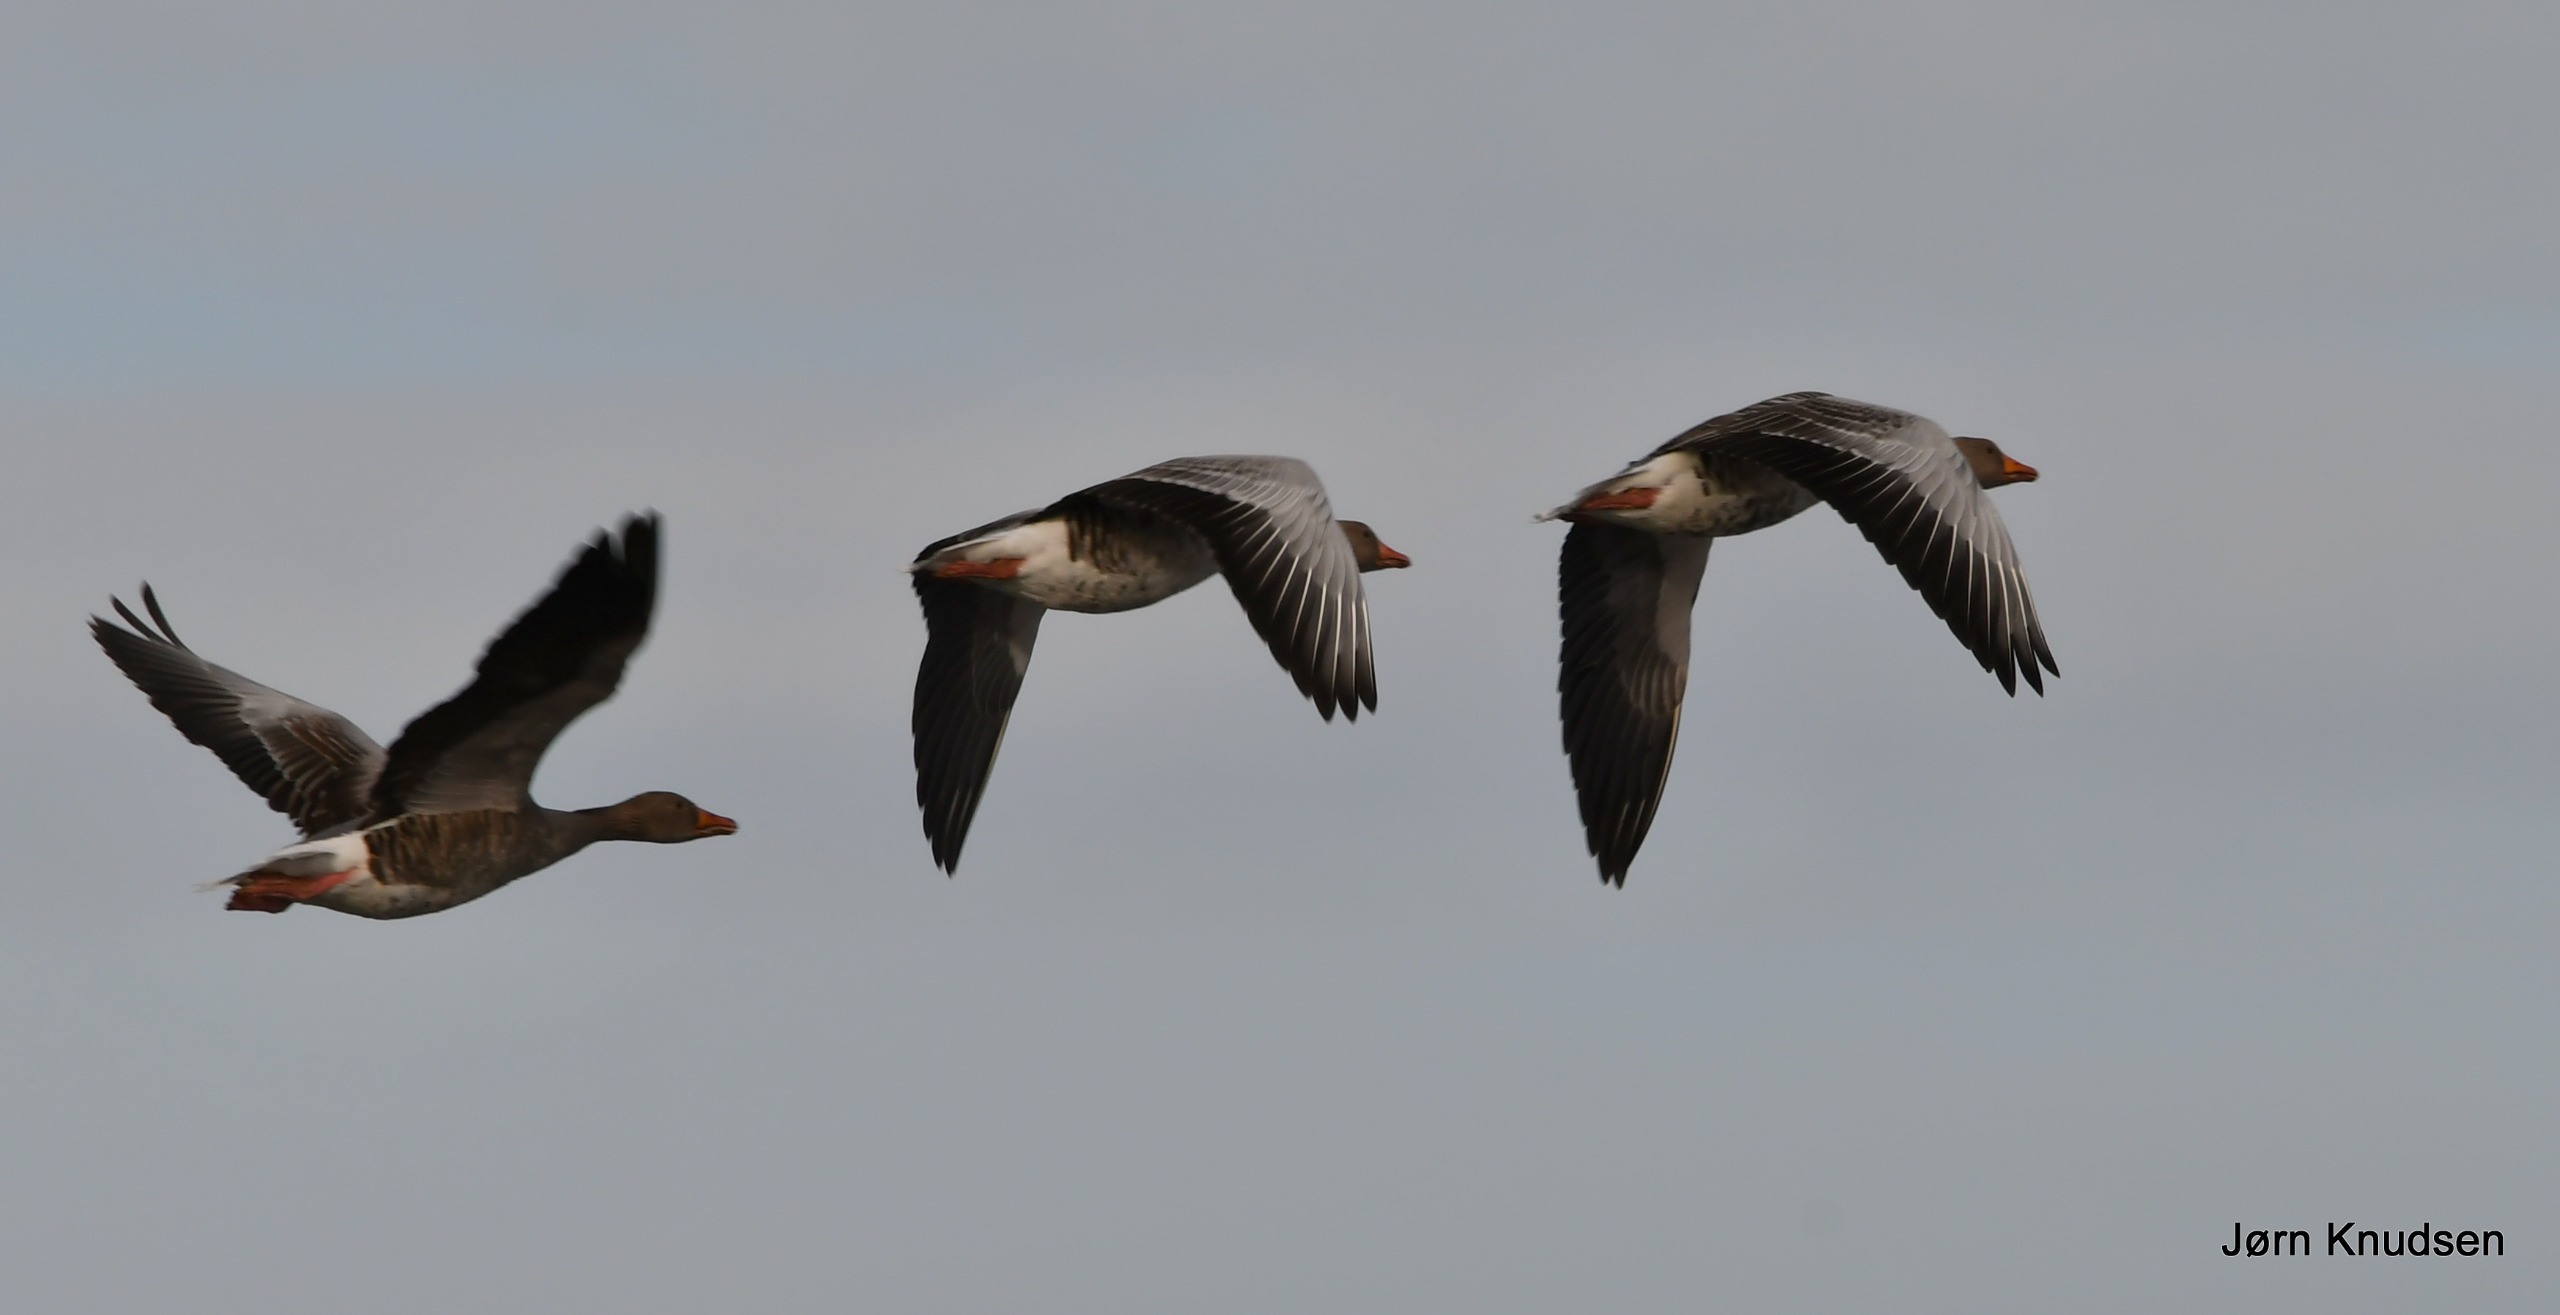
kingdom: Animalia
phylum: Chordata
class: Aves
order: Anseriformes
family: Anatidae
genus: Anser
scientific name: Anser anser
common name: Grågås
